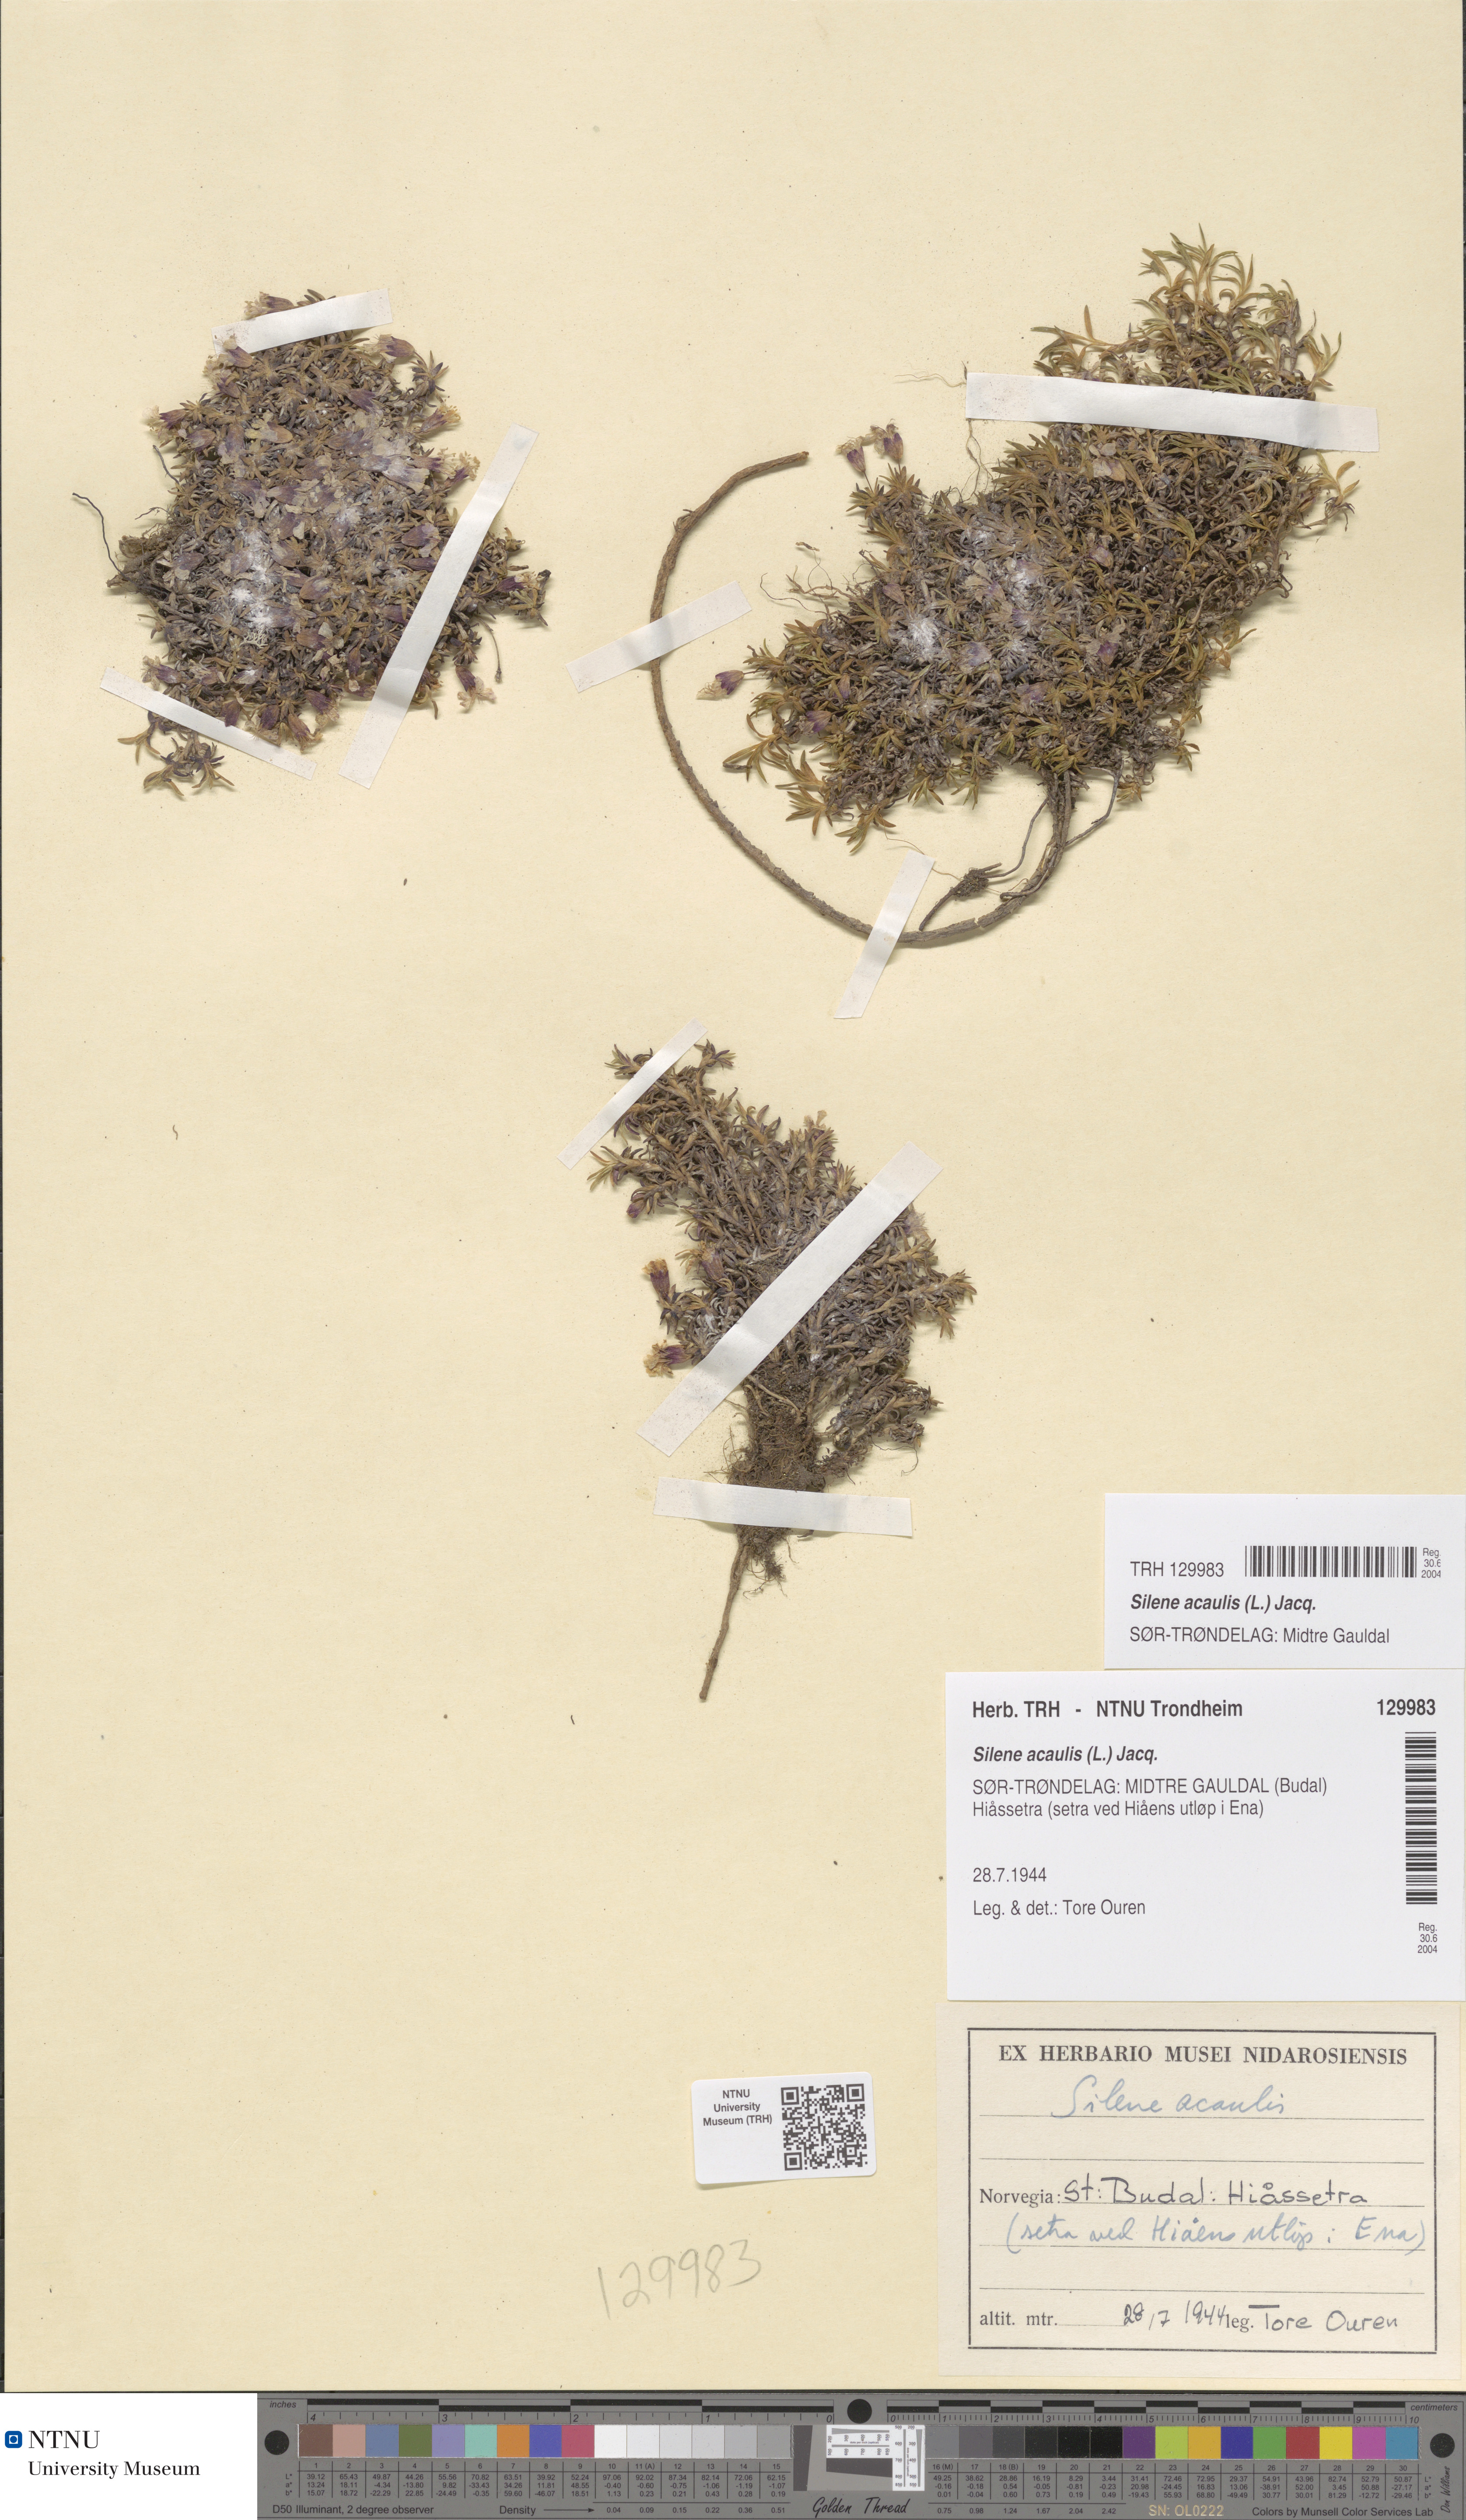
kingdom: Plantae
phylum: Tracheophyta
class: Magnoliopsida
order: Caryophyllales
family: Caryophyllaceae
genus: Silene
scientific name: Silene acaulis
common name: Moss campion
